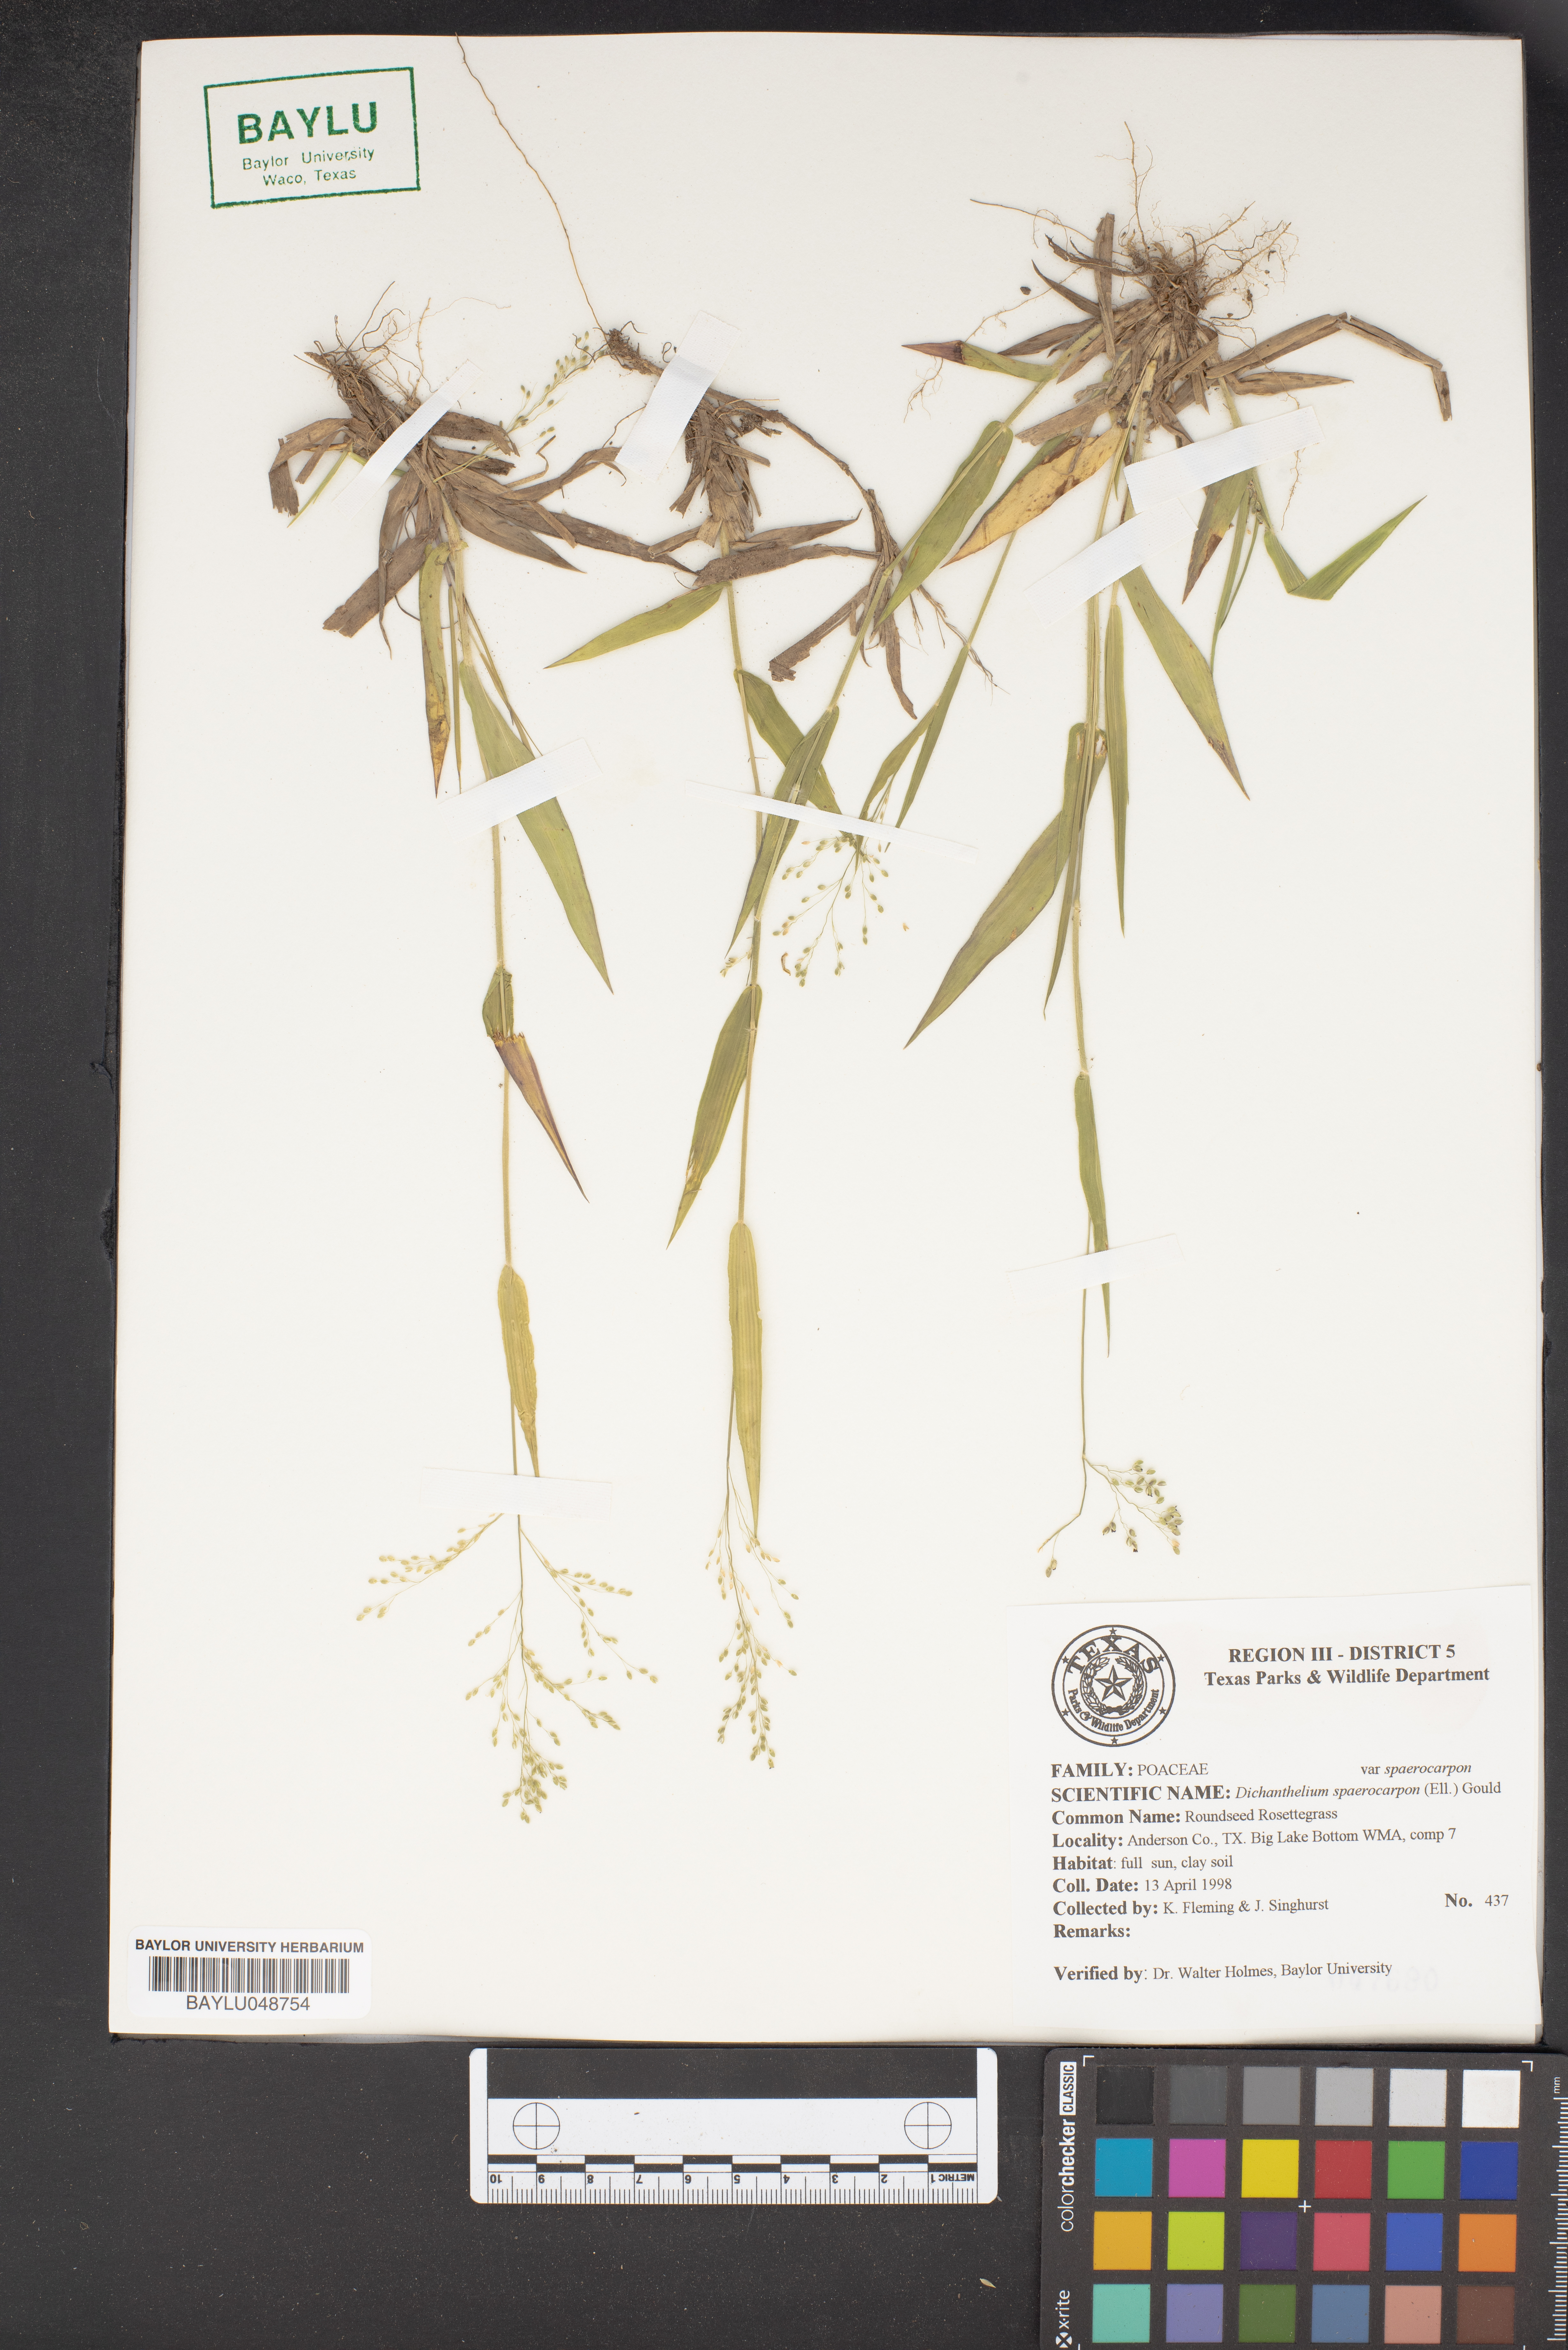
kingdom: Plantae
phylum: Tracheophyta
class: Liliopsida
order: Poales
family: Poaceae
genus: Dichanthelium
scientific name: Dichanthelium
